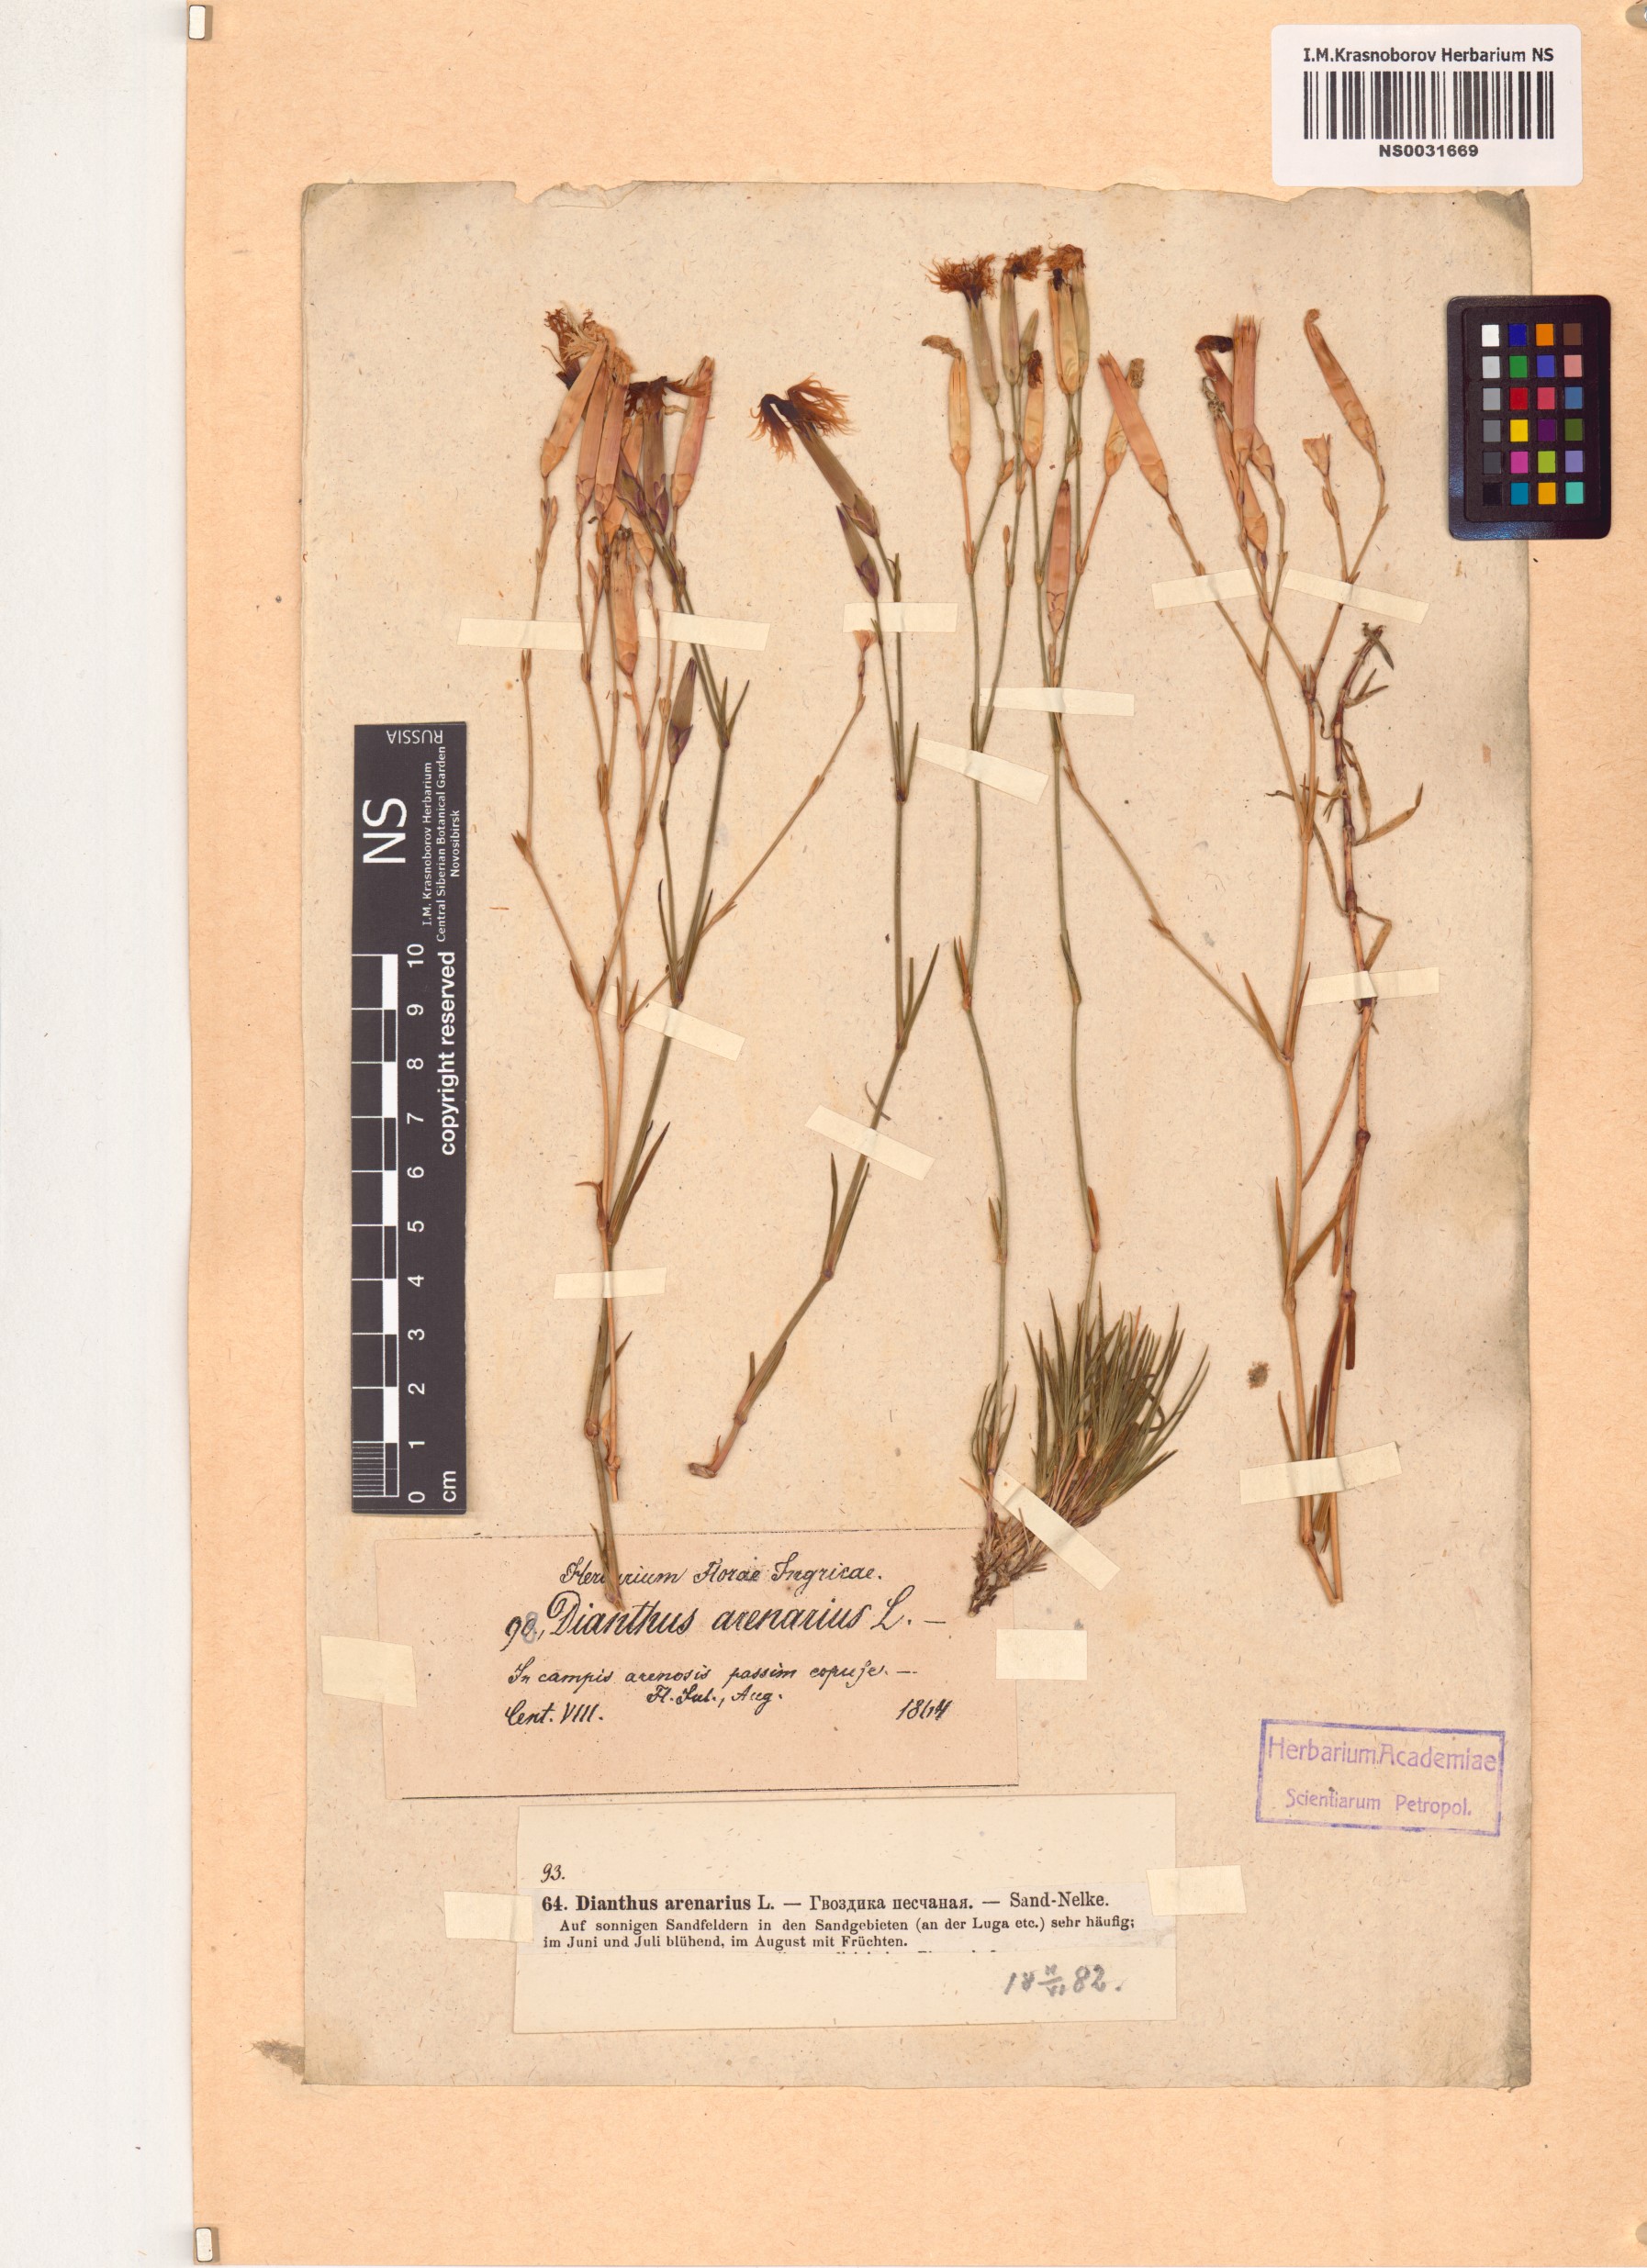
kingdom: Plantae
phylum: Tracheophyta
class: Magnoliopsida
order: Caryophyllales
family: Caryophyllaceae
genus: Dianthus
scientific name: Dianthus arenarius
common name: Stone pink
